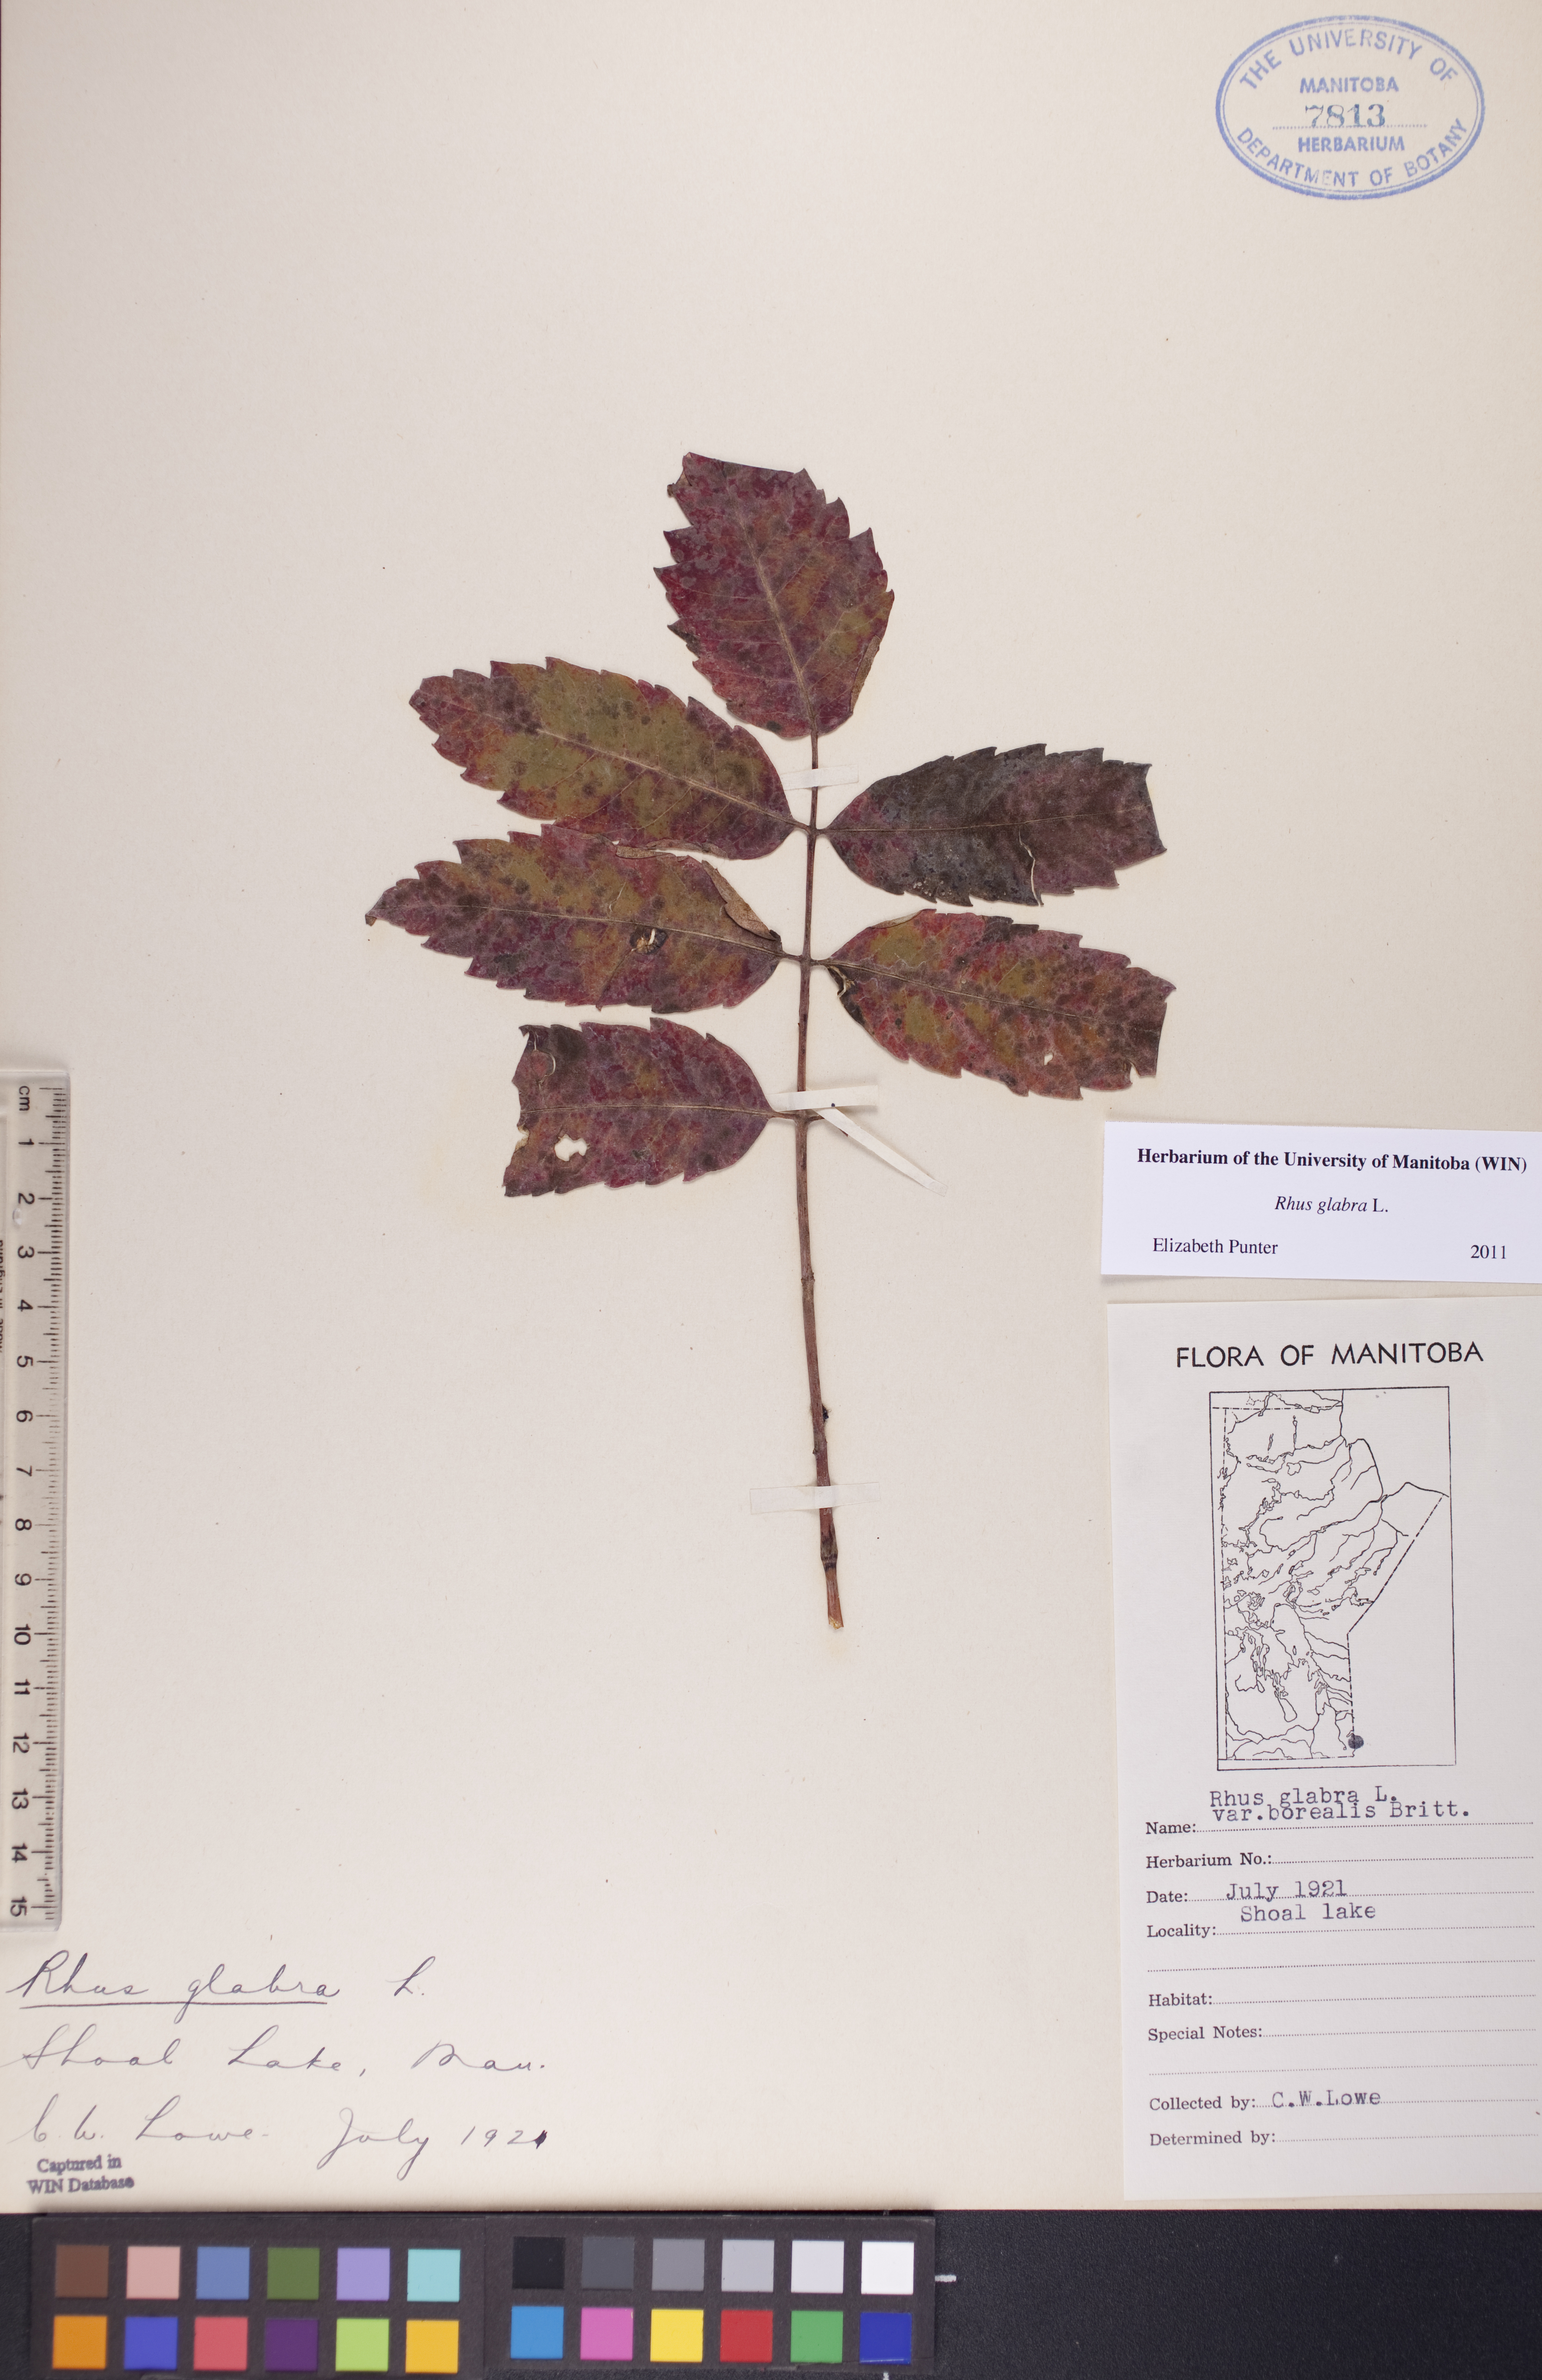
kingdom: Plantae
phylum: Tracheophyta
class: Magnoliopsida
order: Sapindales
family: Anacardiaceae
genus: Rhus
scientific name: Rhus glabra
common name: Scarlet sumac
